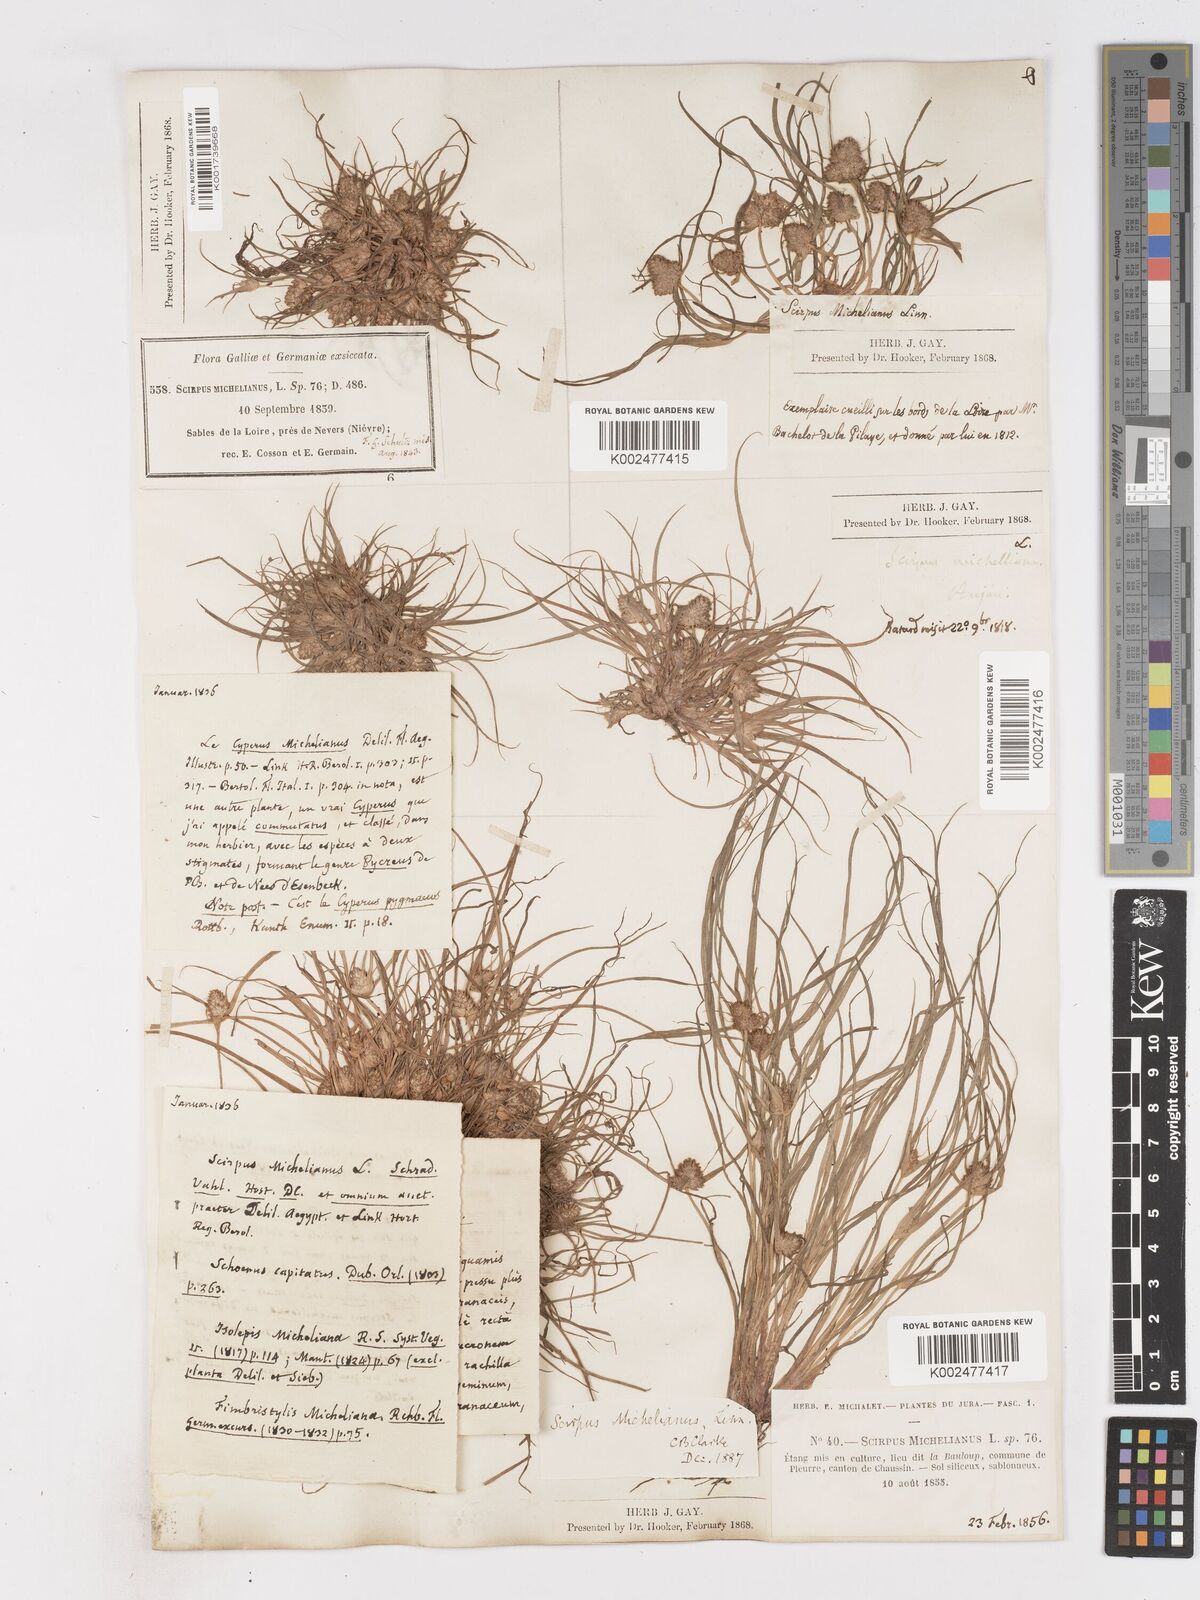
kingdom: Plantae
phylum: Tracheophyta
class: Liliopsida
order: Poales
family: Cyperaceae
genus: Cyperus
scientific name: Cyperus michelianus
